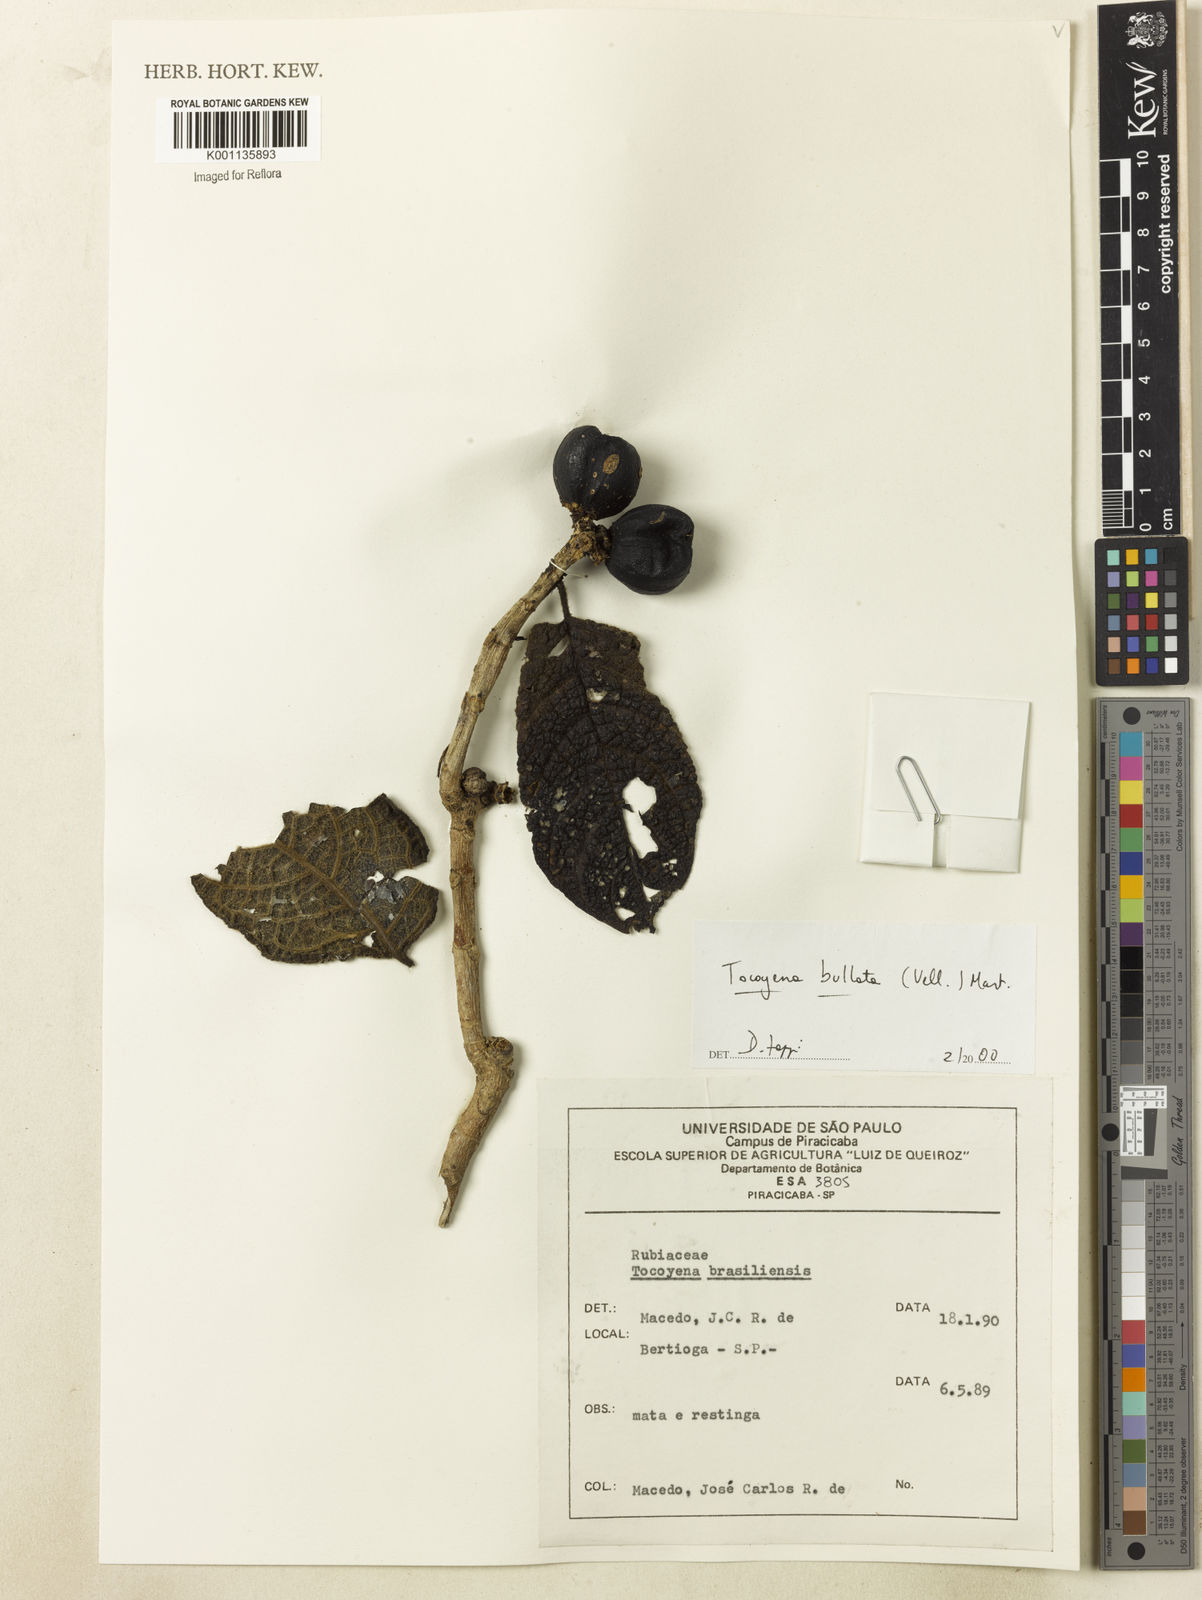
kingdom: Plantae
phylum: Tracheophyta
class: Magnoliopsida
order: Gentianales
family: Rubiaceae
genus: Tocoyena
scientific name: Tocoyena bullata
